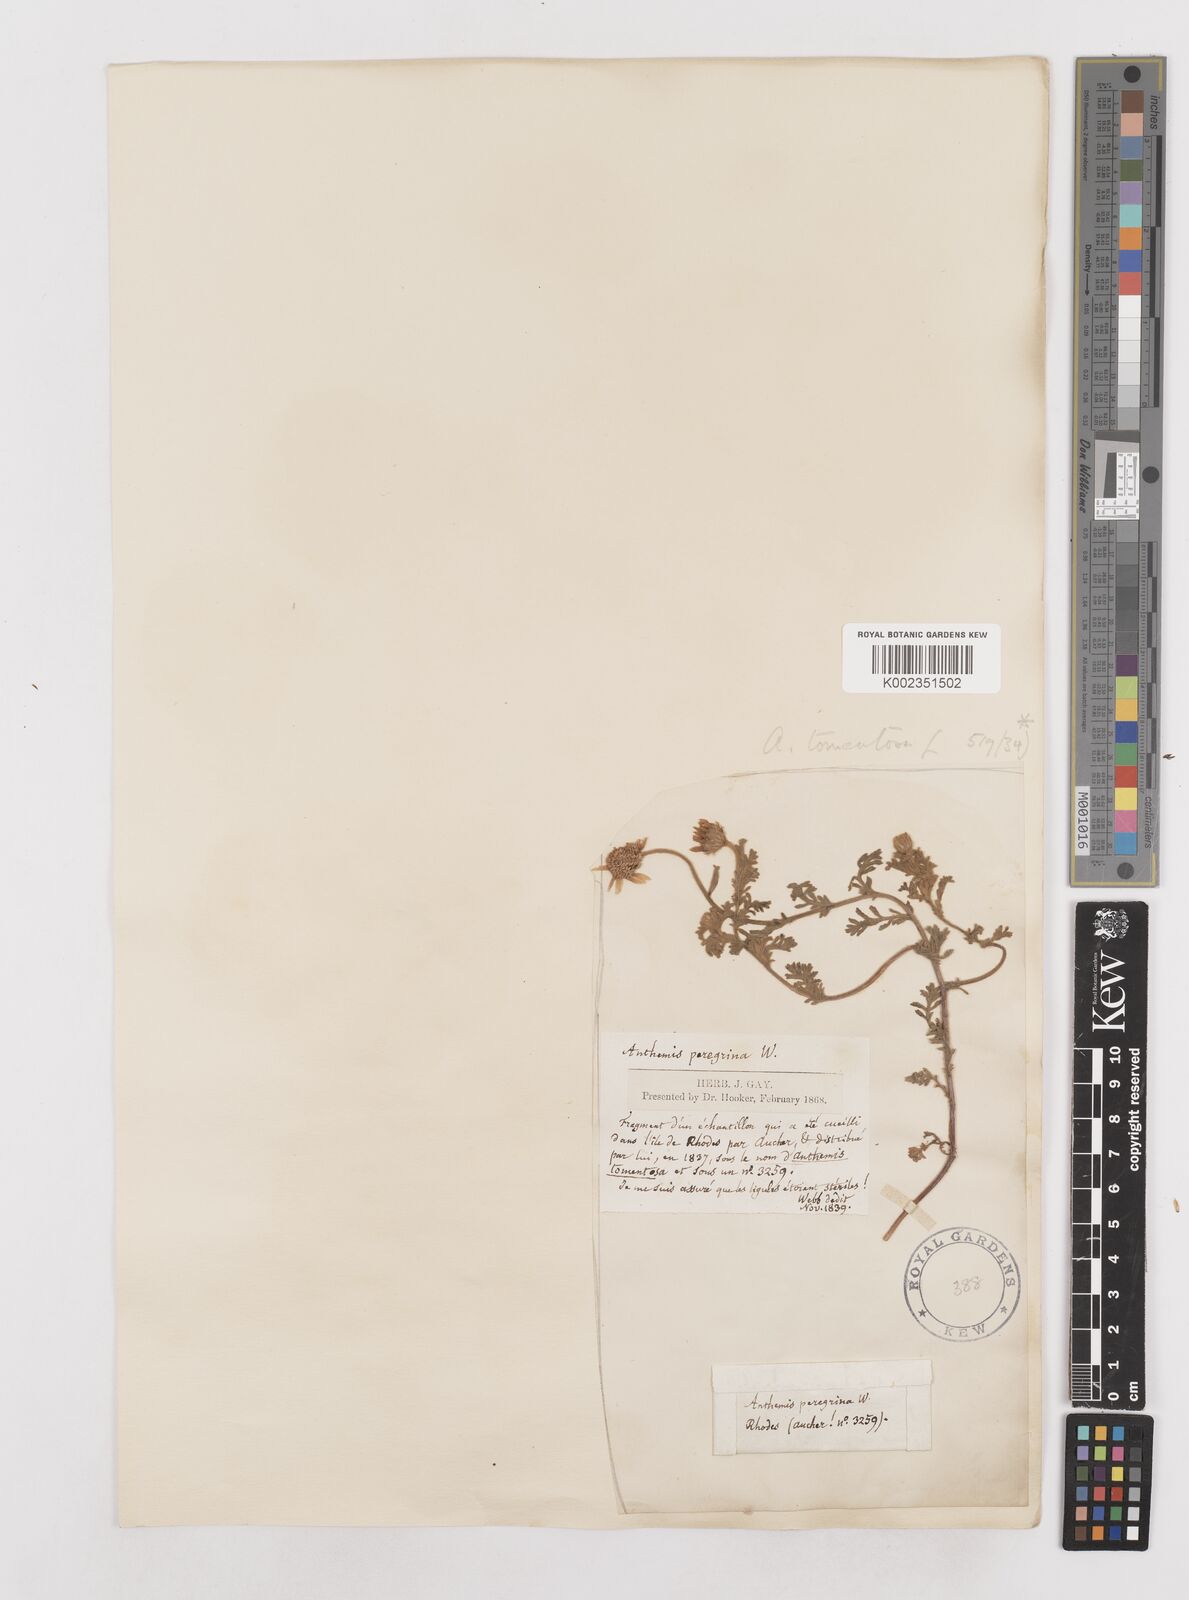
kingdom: Plantae
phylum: Tracheophyta
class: Magnoliopsida
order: Asterales
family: Asteraceae
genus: Anthemis
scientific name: Anthemis tomentosa
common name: Woolly chamomile
